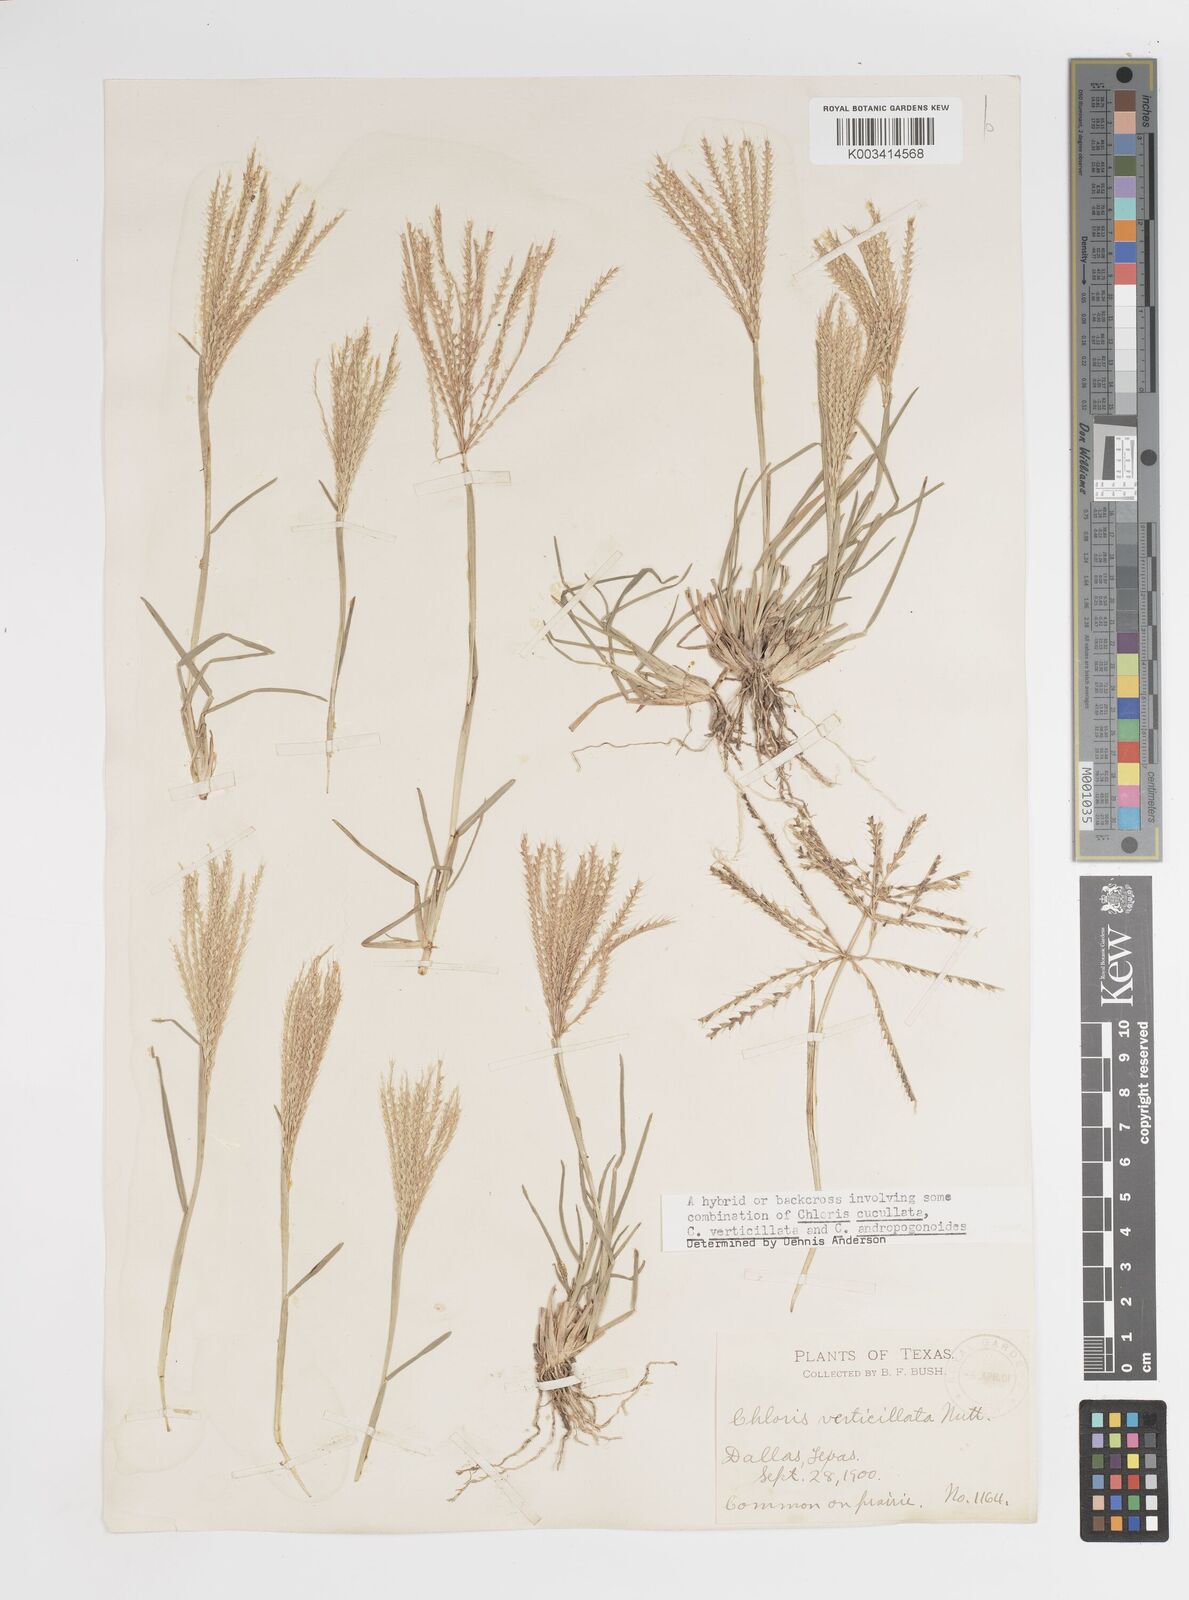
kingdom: Plantae
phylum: Tracheophyta
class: Liliopsida
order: Poales
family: Poaceae
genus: Chloris
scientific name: Chloris verticillata
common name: Tumble windmill grass
